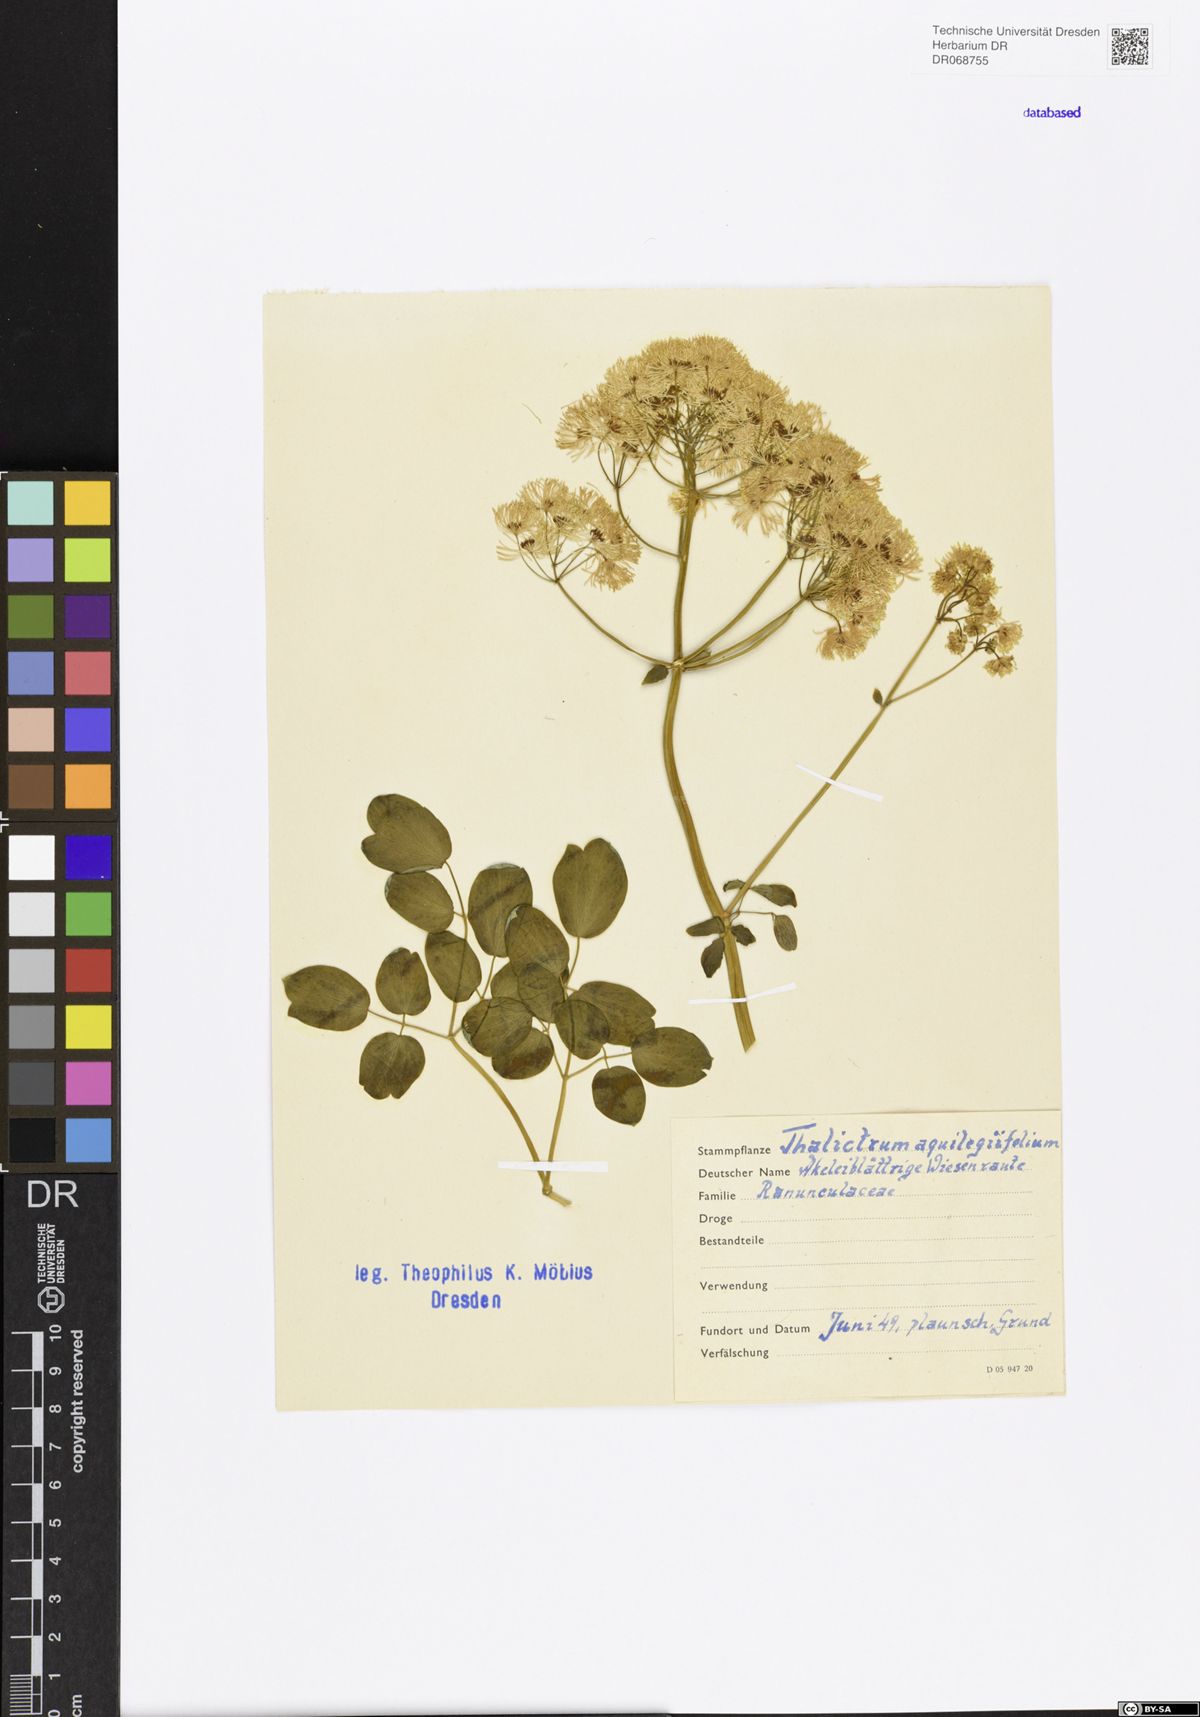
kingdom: Plantae
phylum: Tracheophyta
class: Magnoliopsida
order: Ranunculales
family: Ranunculaceae
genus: Thalictrum
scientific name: Thalictrum aquilegiifolium
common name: French meadow-rue
